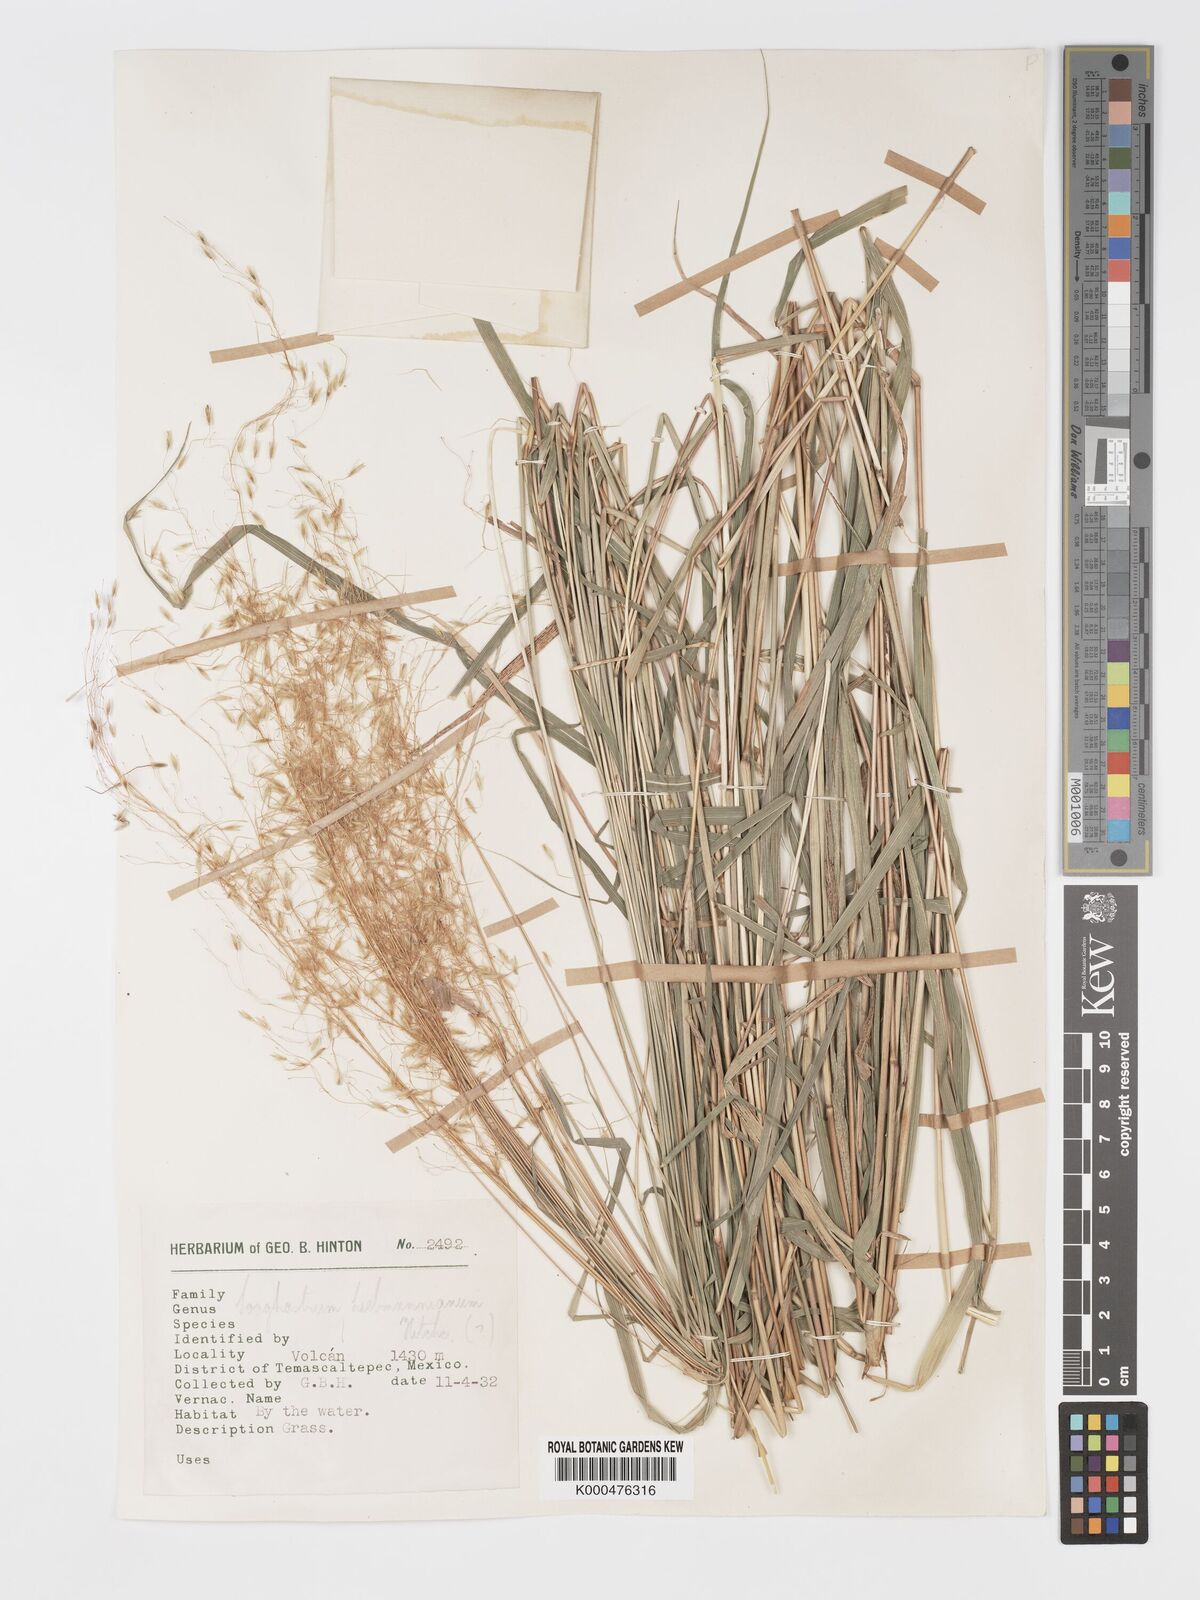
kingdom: Plantae
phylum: Tracheophyta
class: Liliopsida
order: Poales
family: Poaceae
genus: Sorghastrum
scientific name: Sorghastrum incompletum
